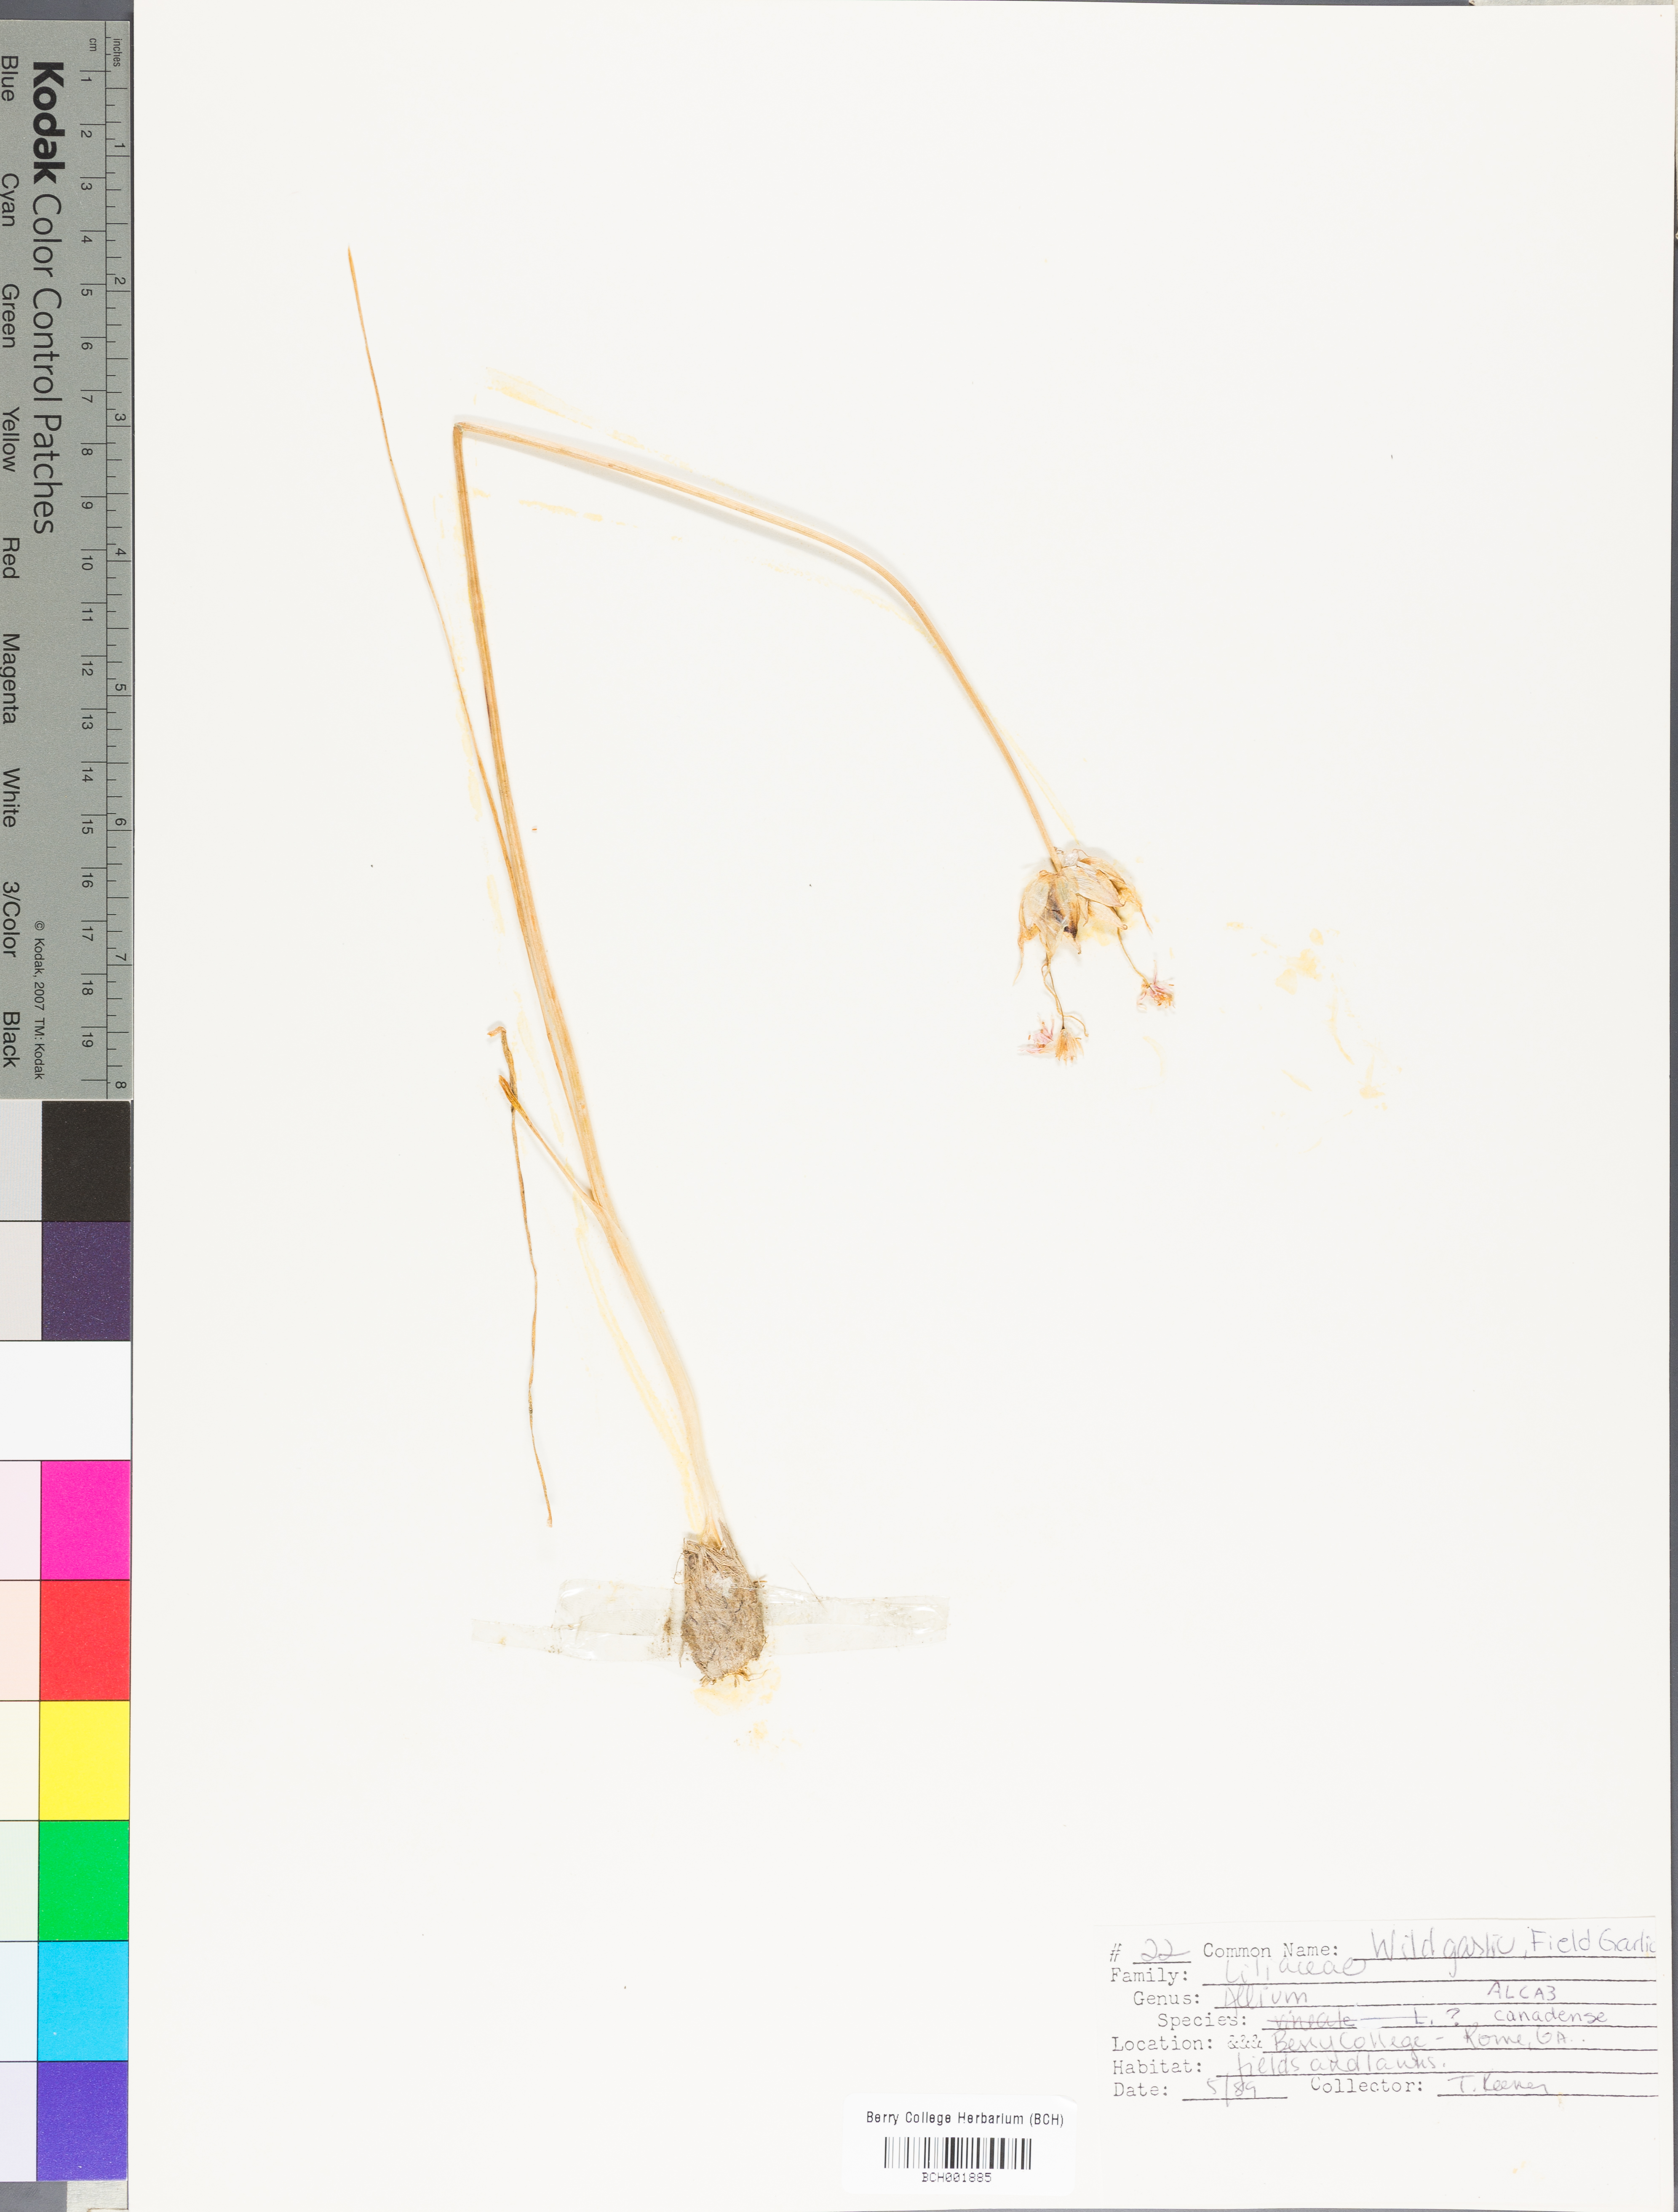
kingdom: Plantae
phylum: Tracheophyta
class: Liliopsida
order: Asparagales
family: Amaryllidaceae
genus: Allium
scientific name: Allium canadense
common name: Meadow garlic
